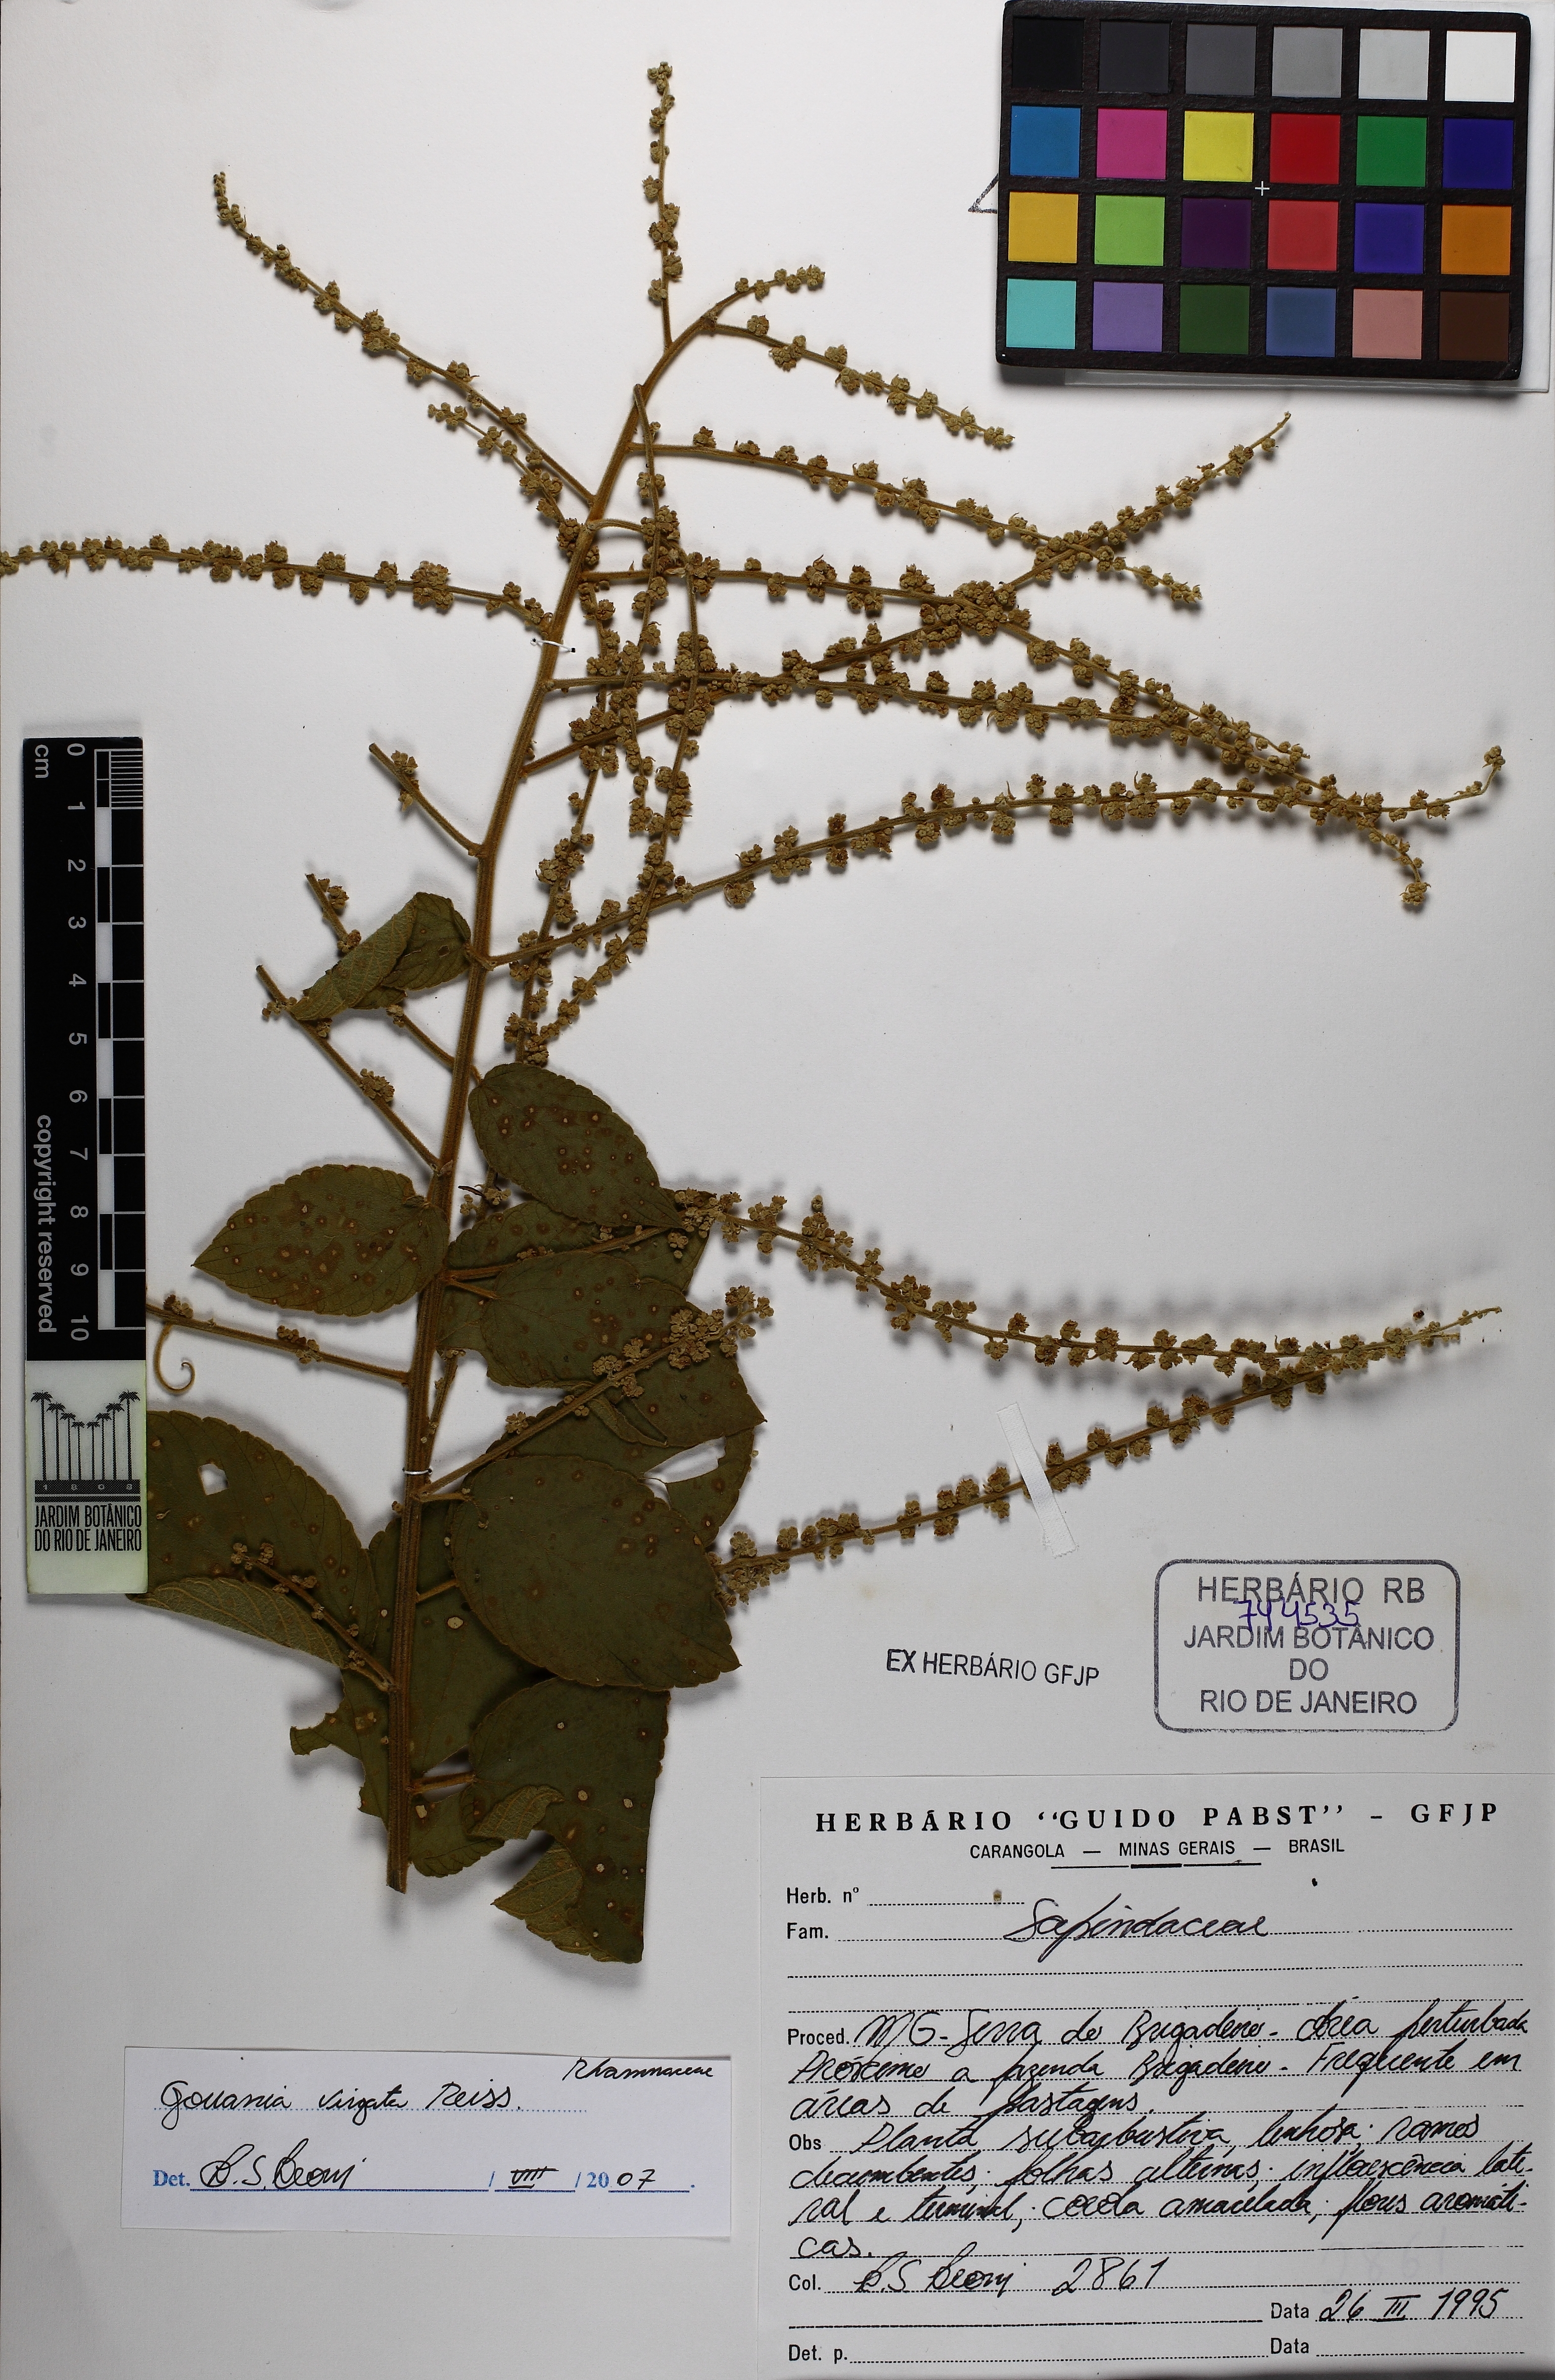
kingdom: Plantae
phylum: Tracheophyta
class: Magnoliopsida
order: Rosales
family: Rhamnaceae
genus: Gouania
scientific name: Gouania lupuloides
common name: Chewstick
